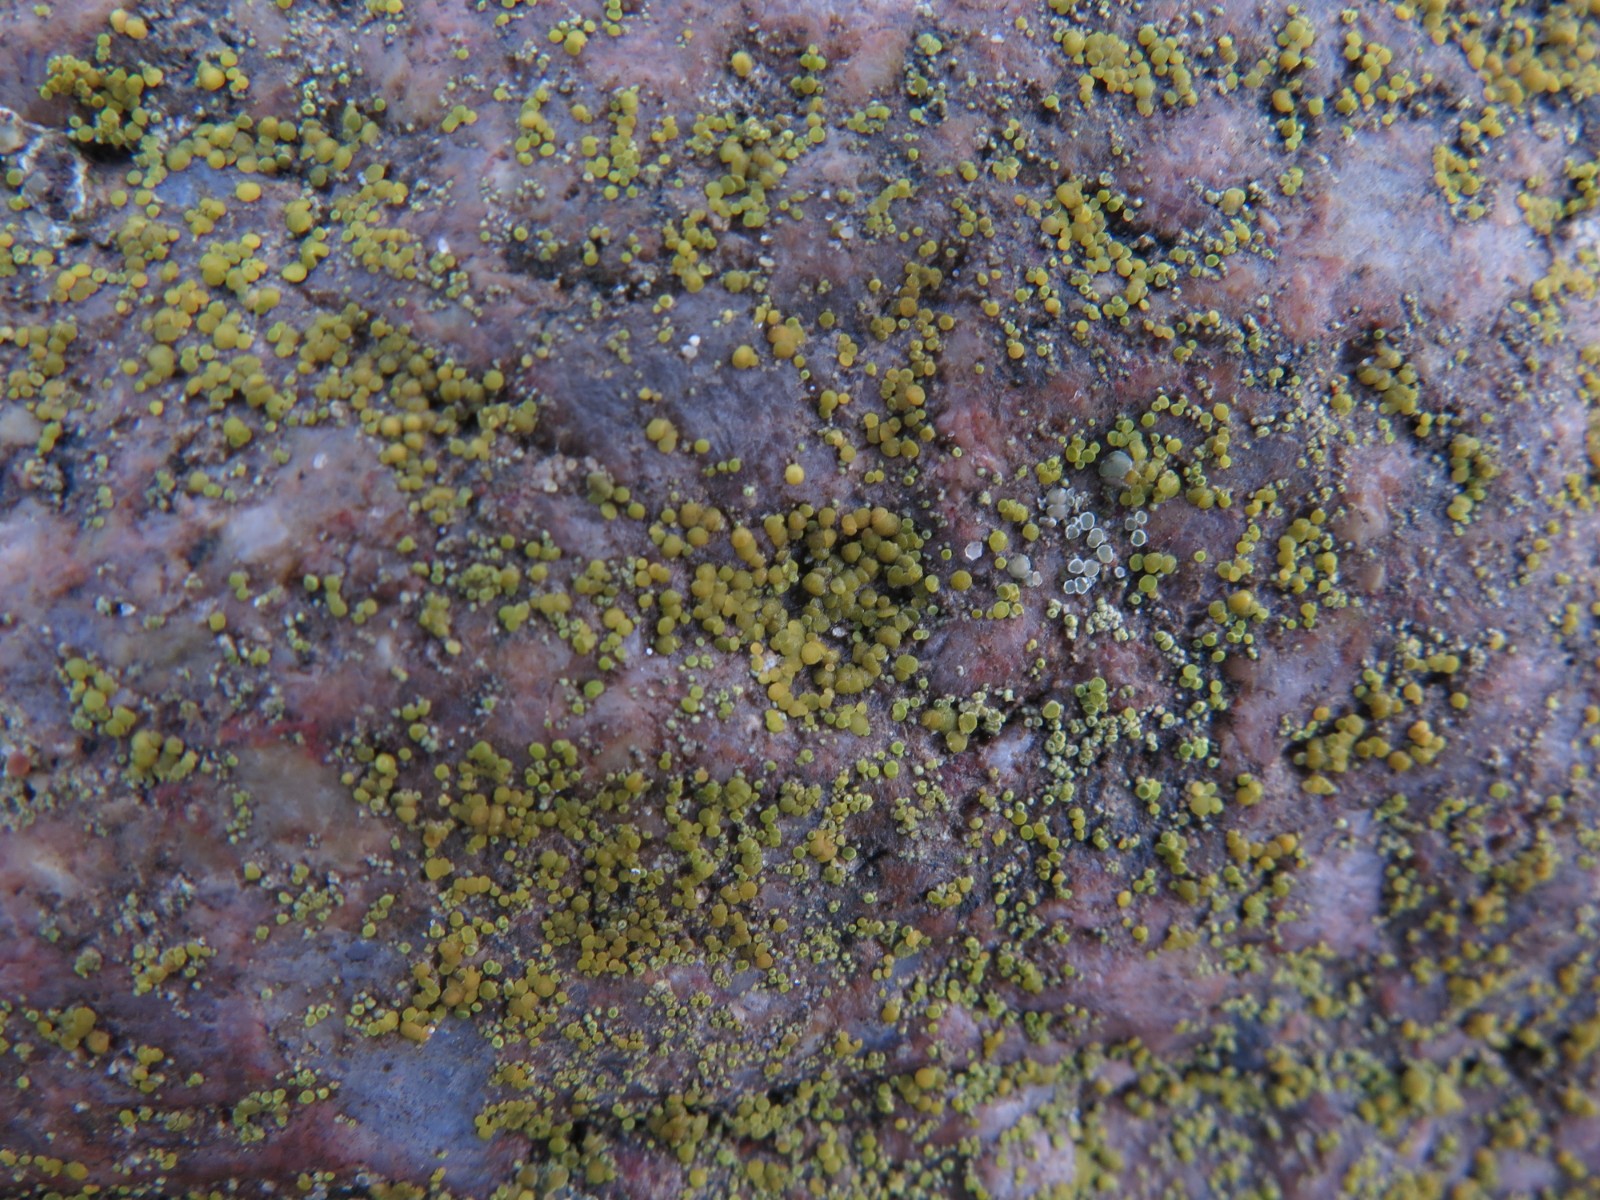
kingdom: Fungi
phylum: Ascomycota
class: Candelariomycetes
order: Candelariales
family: Candelariaceae
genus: Candelariella
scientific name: Candelariella aurella
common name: liden æggeblommelav
